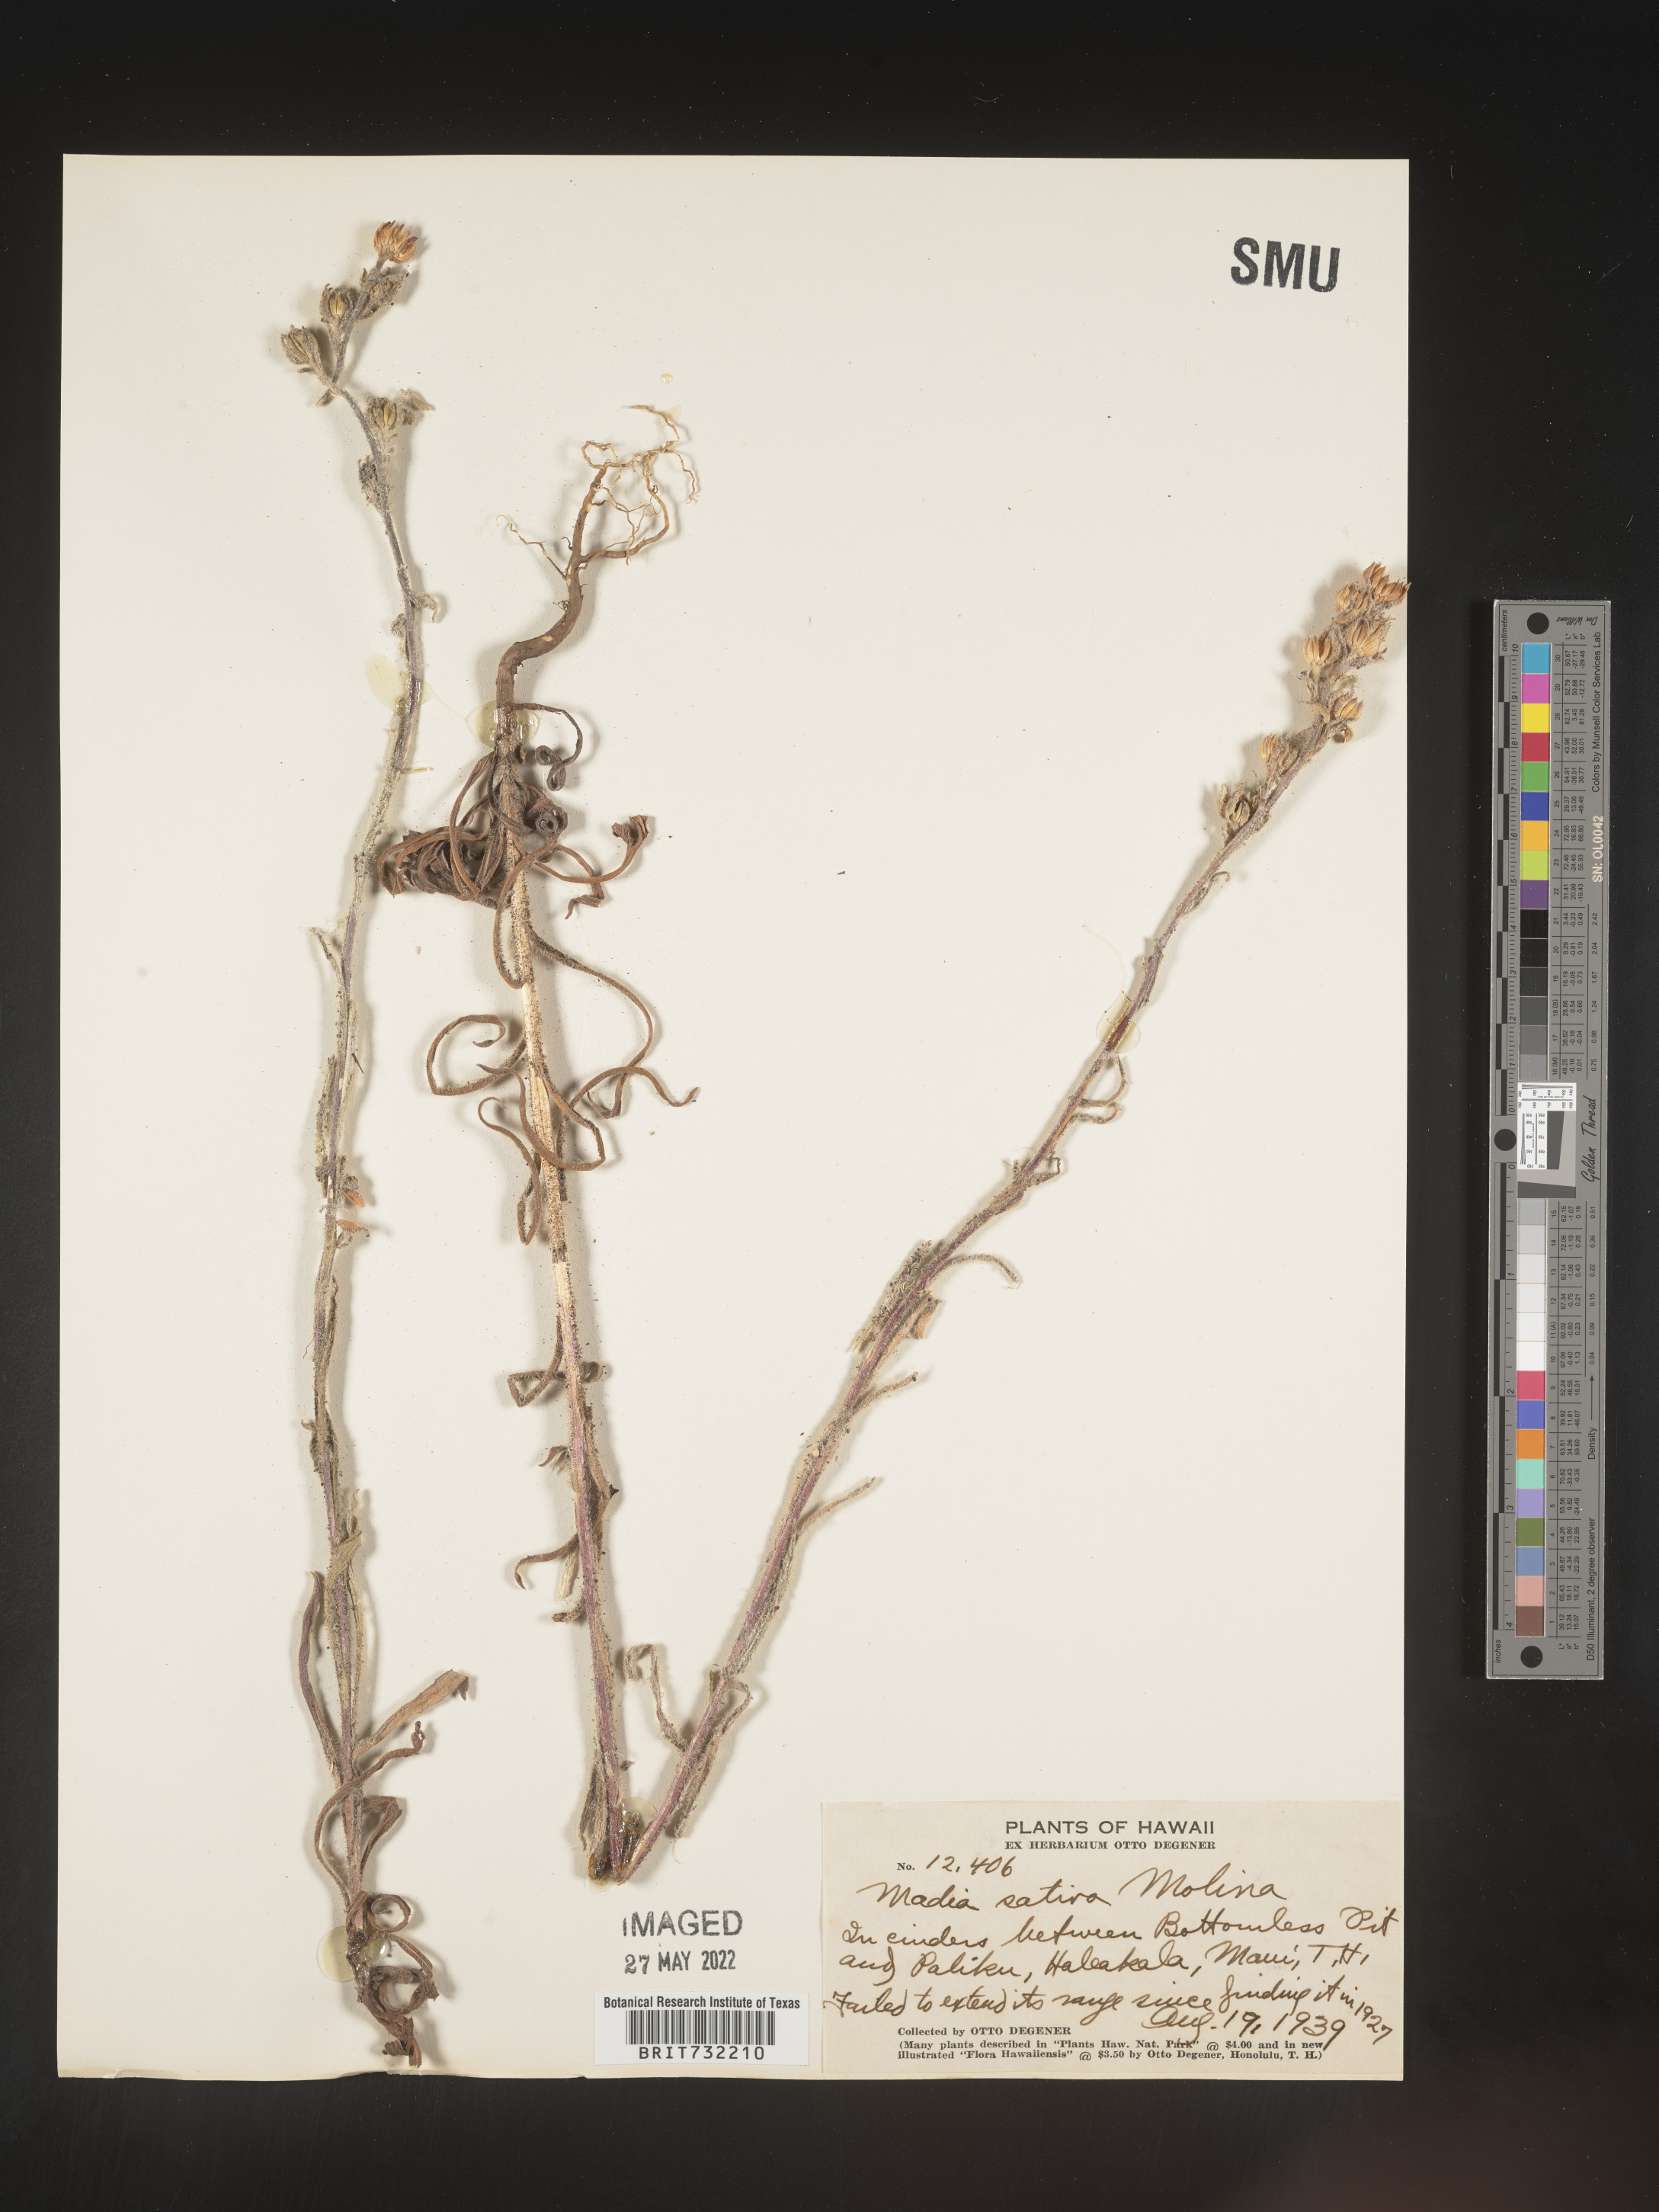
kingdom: Plantae
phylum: Tracheophyta
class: Magnoliopsida
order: Asterales
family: Asteraceae
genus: Madia
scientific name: Madia sativa
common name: Coast tarweed
